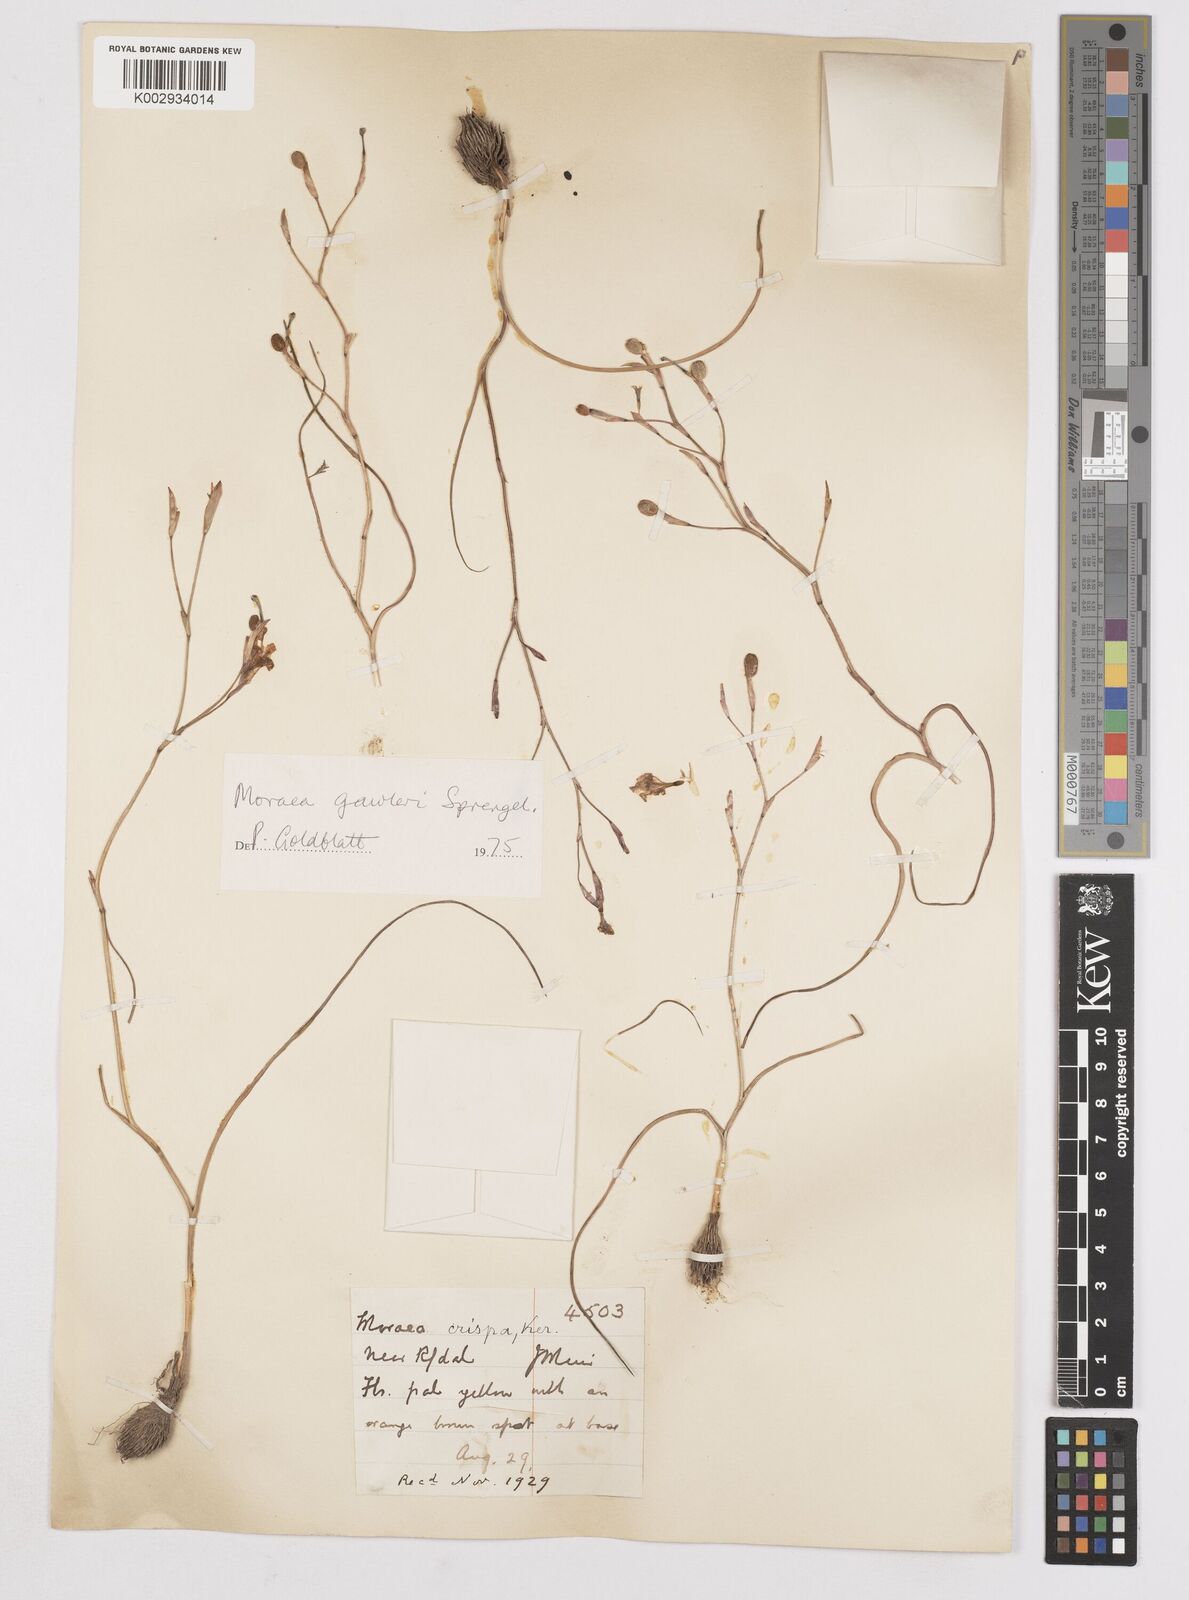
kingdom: Plantae
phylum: Tracheophyta
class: Liliopsida
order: Asparagales
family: Iridaceae
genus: Moraea
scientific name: Moraea gawleri
